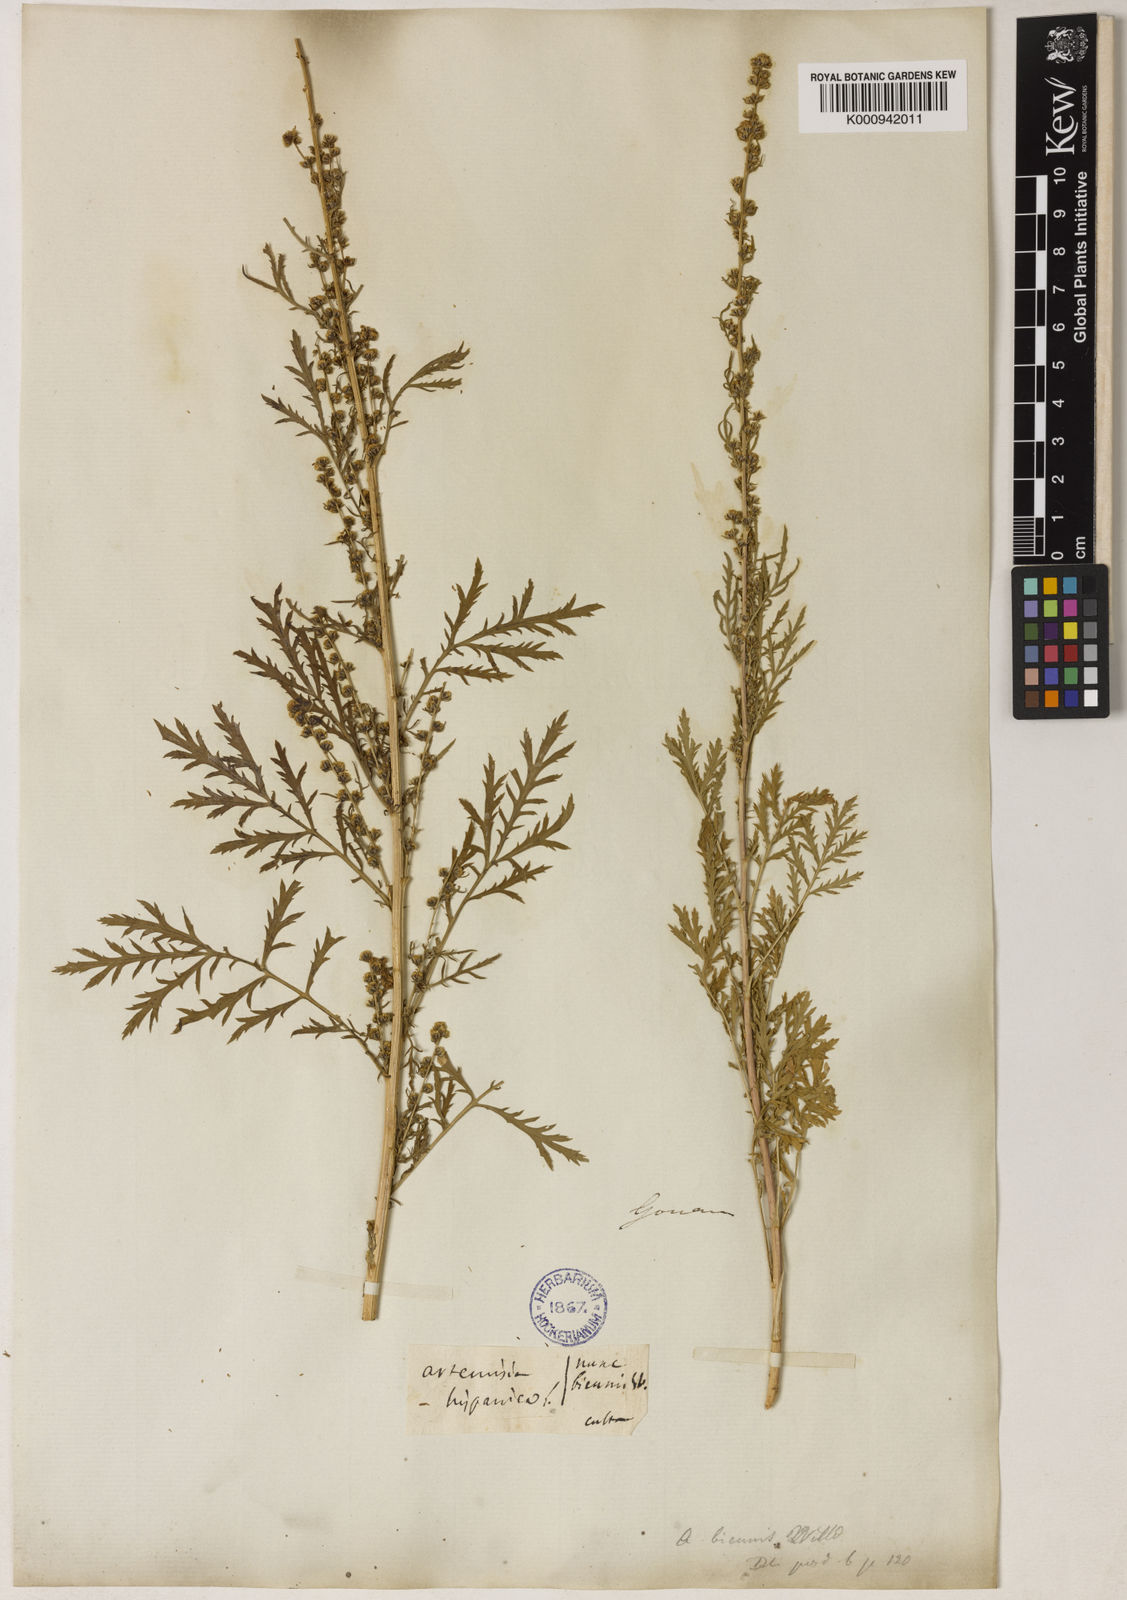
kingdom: Plantae
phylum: Tracheophyta
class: Magnoliopsida
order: Asterales
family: Asteraceae
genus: Artemisia
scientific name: Artemisia biennis
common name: Biennial wormwood
